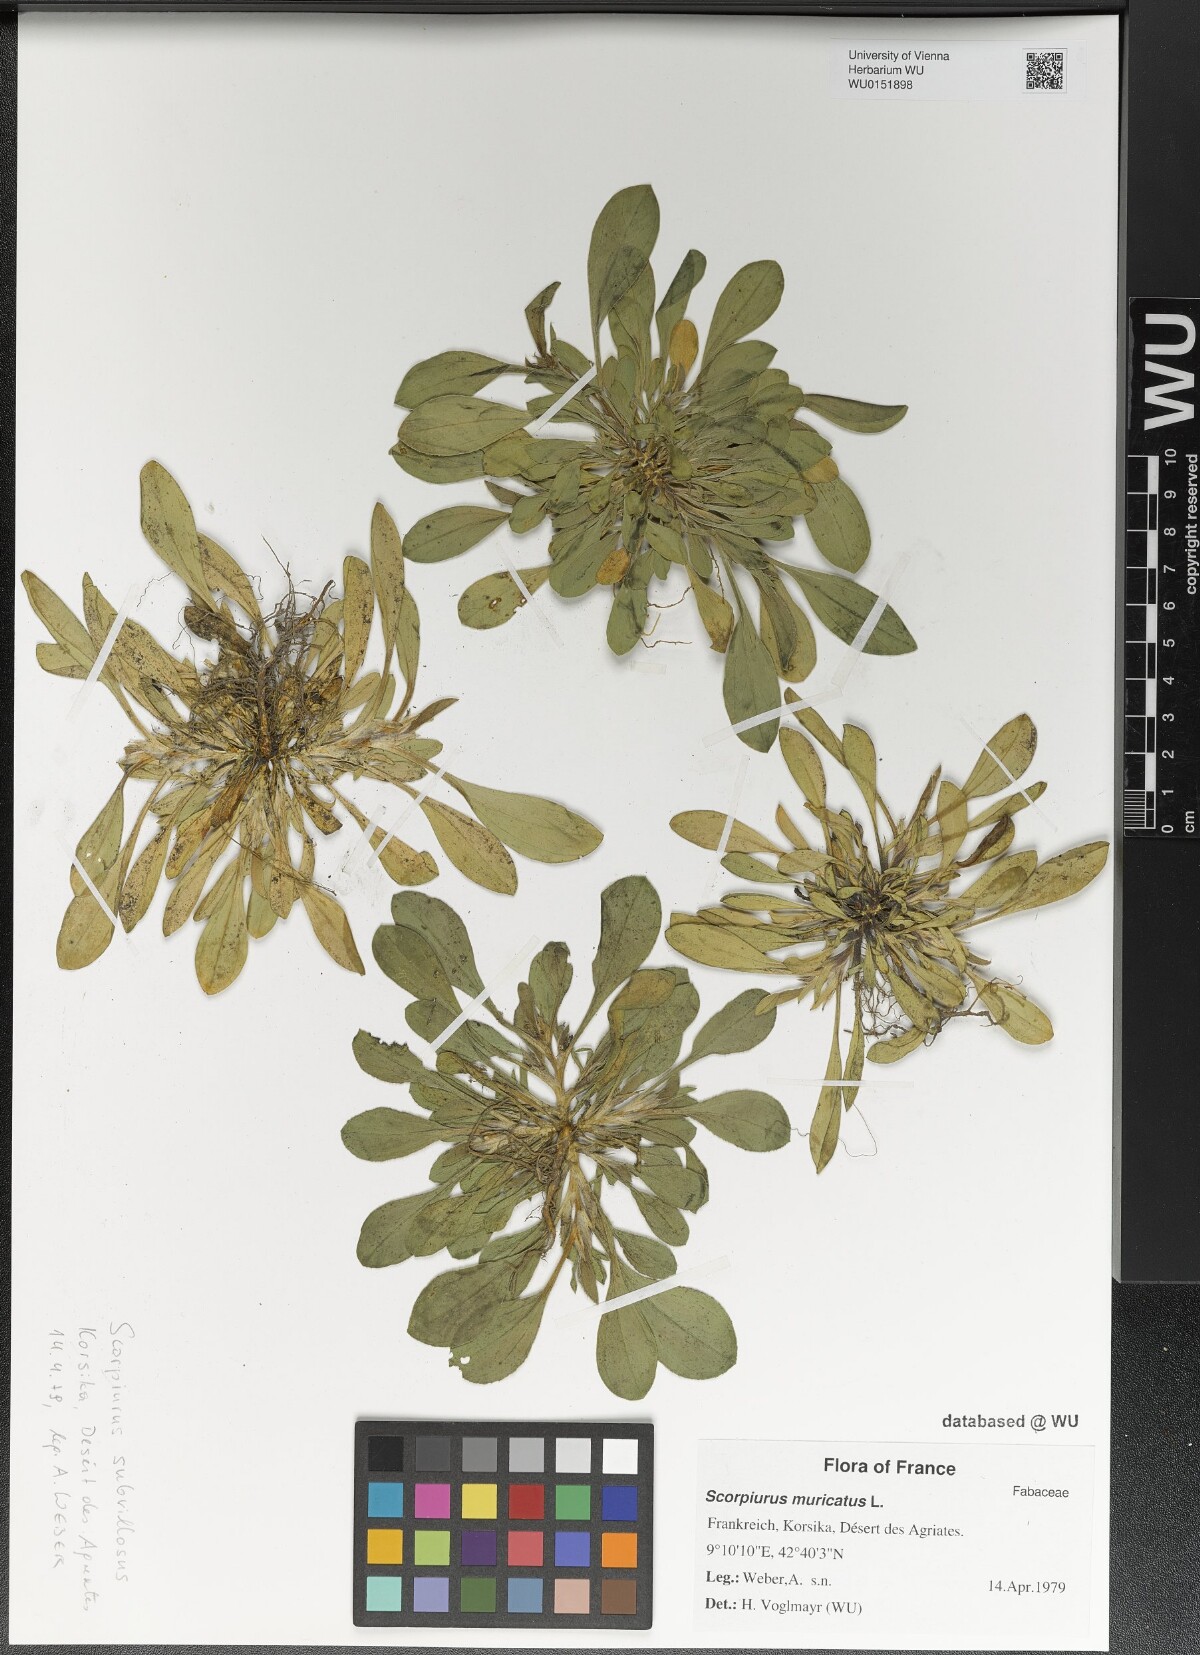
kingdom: Plantae
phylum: Tracheophyta
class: Magnoliopsida
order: Fabales
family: Fabaceae
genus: Scorpiurus
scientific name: Scorpiurus muricatus
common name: Caterpillar-plant
